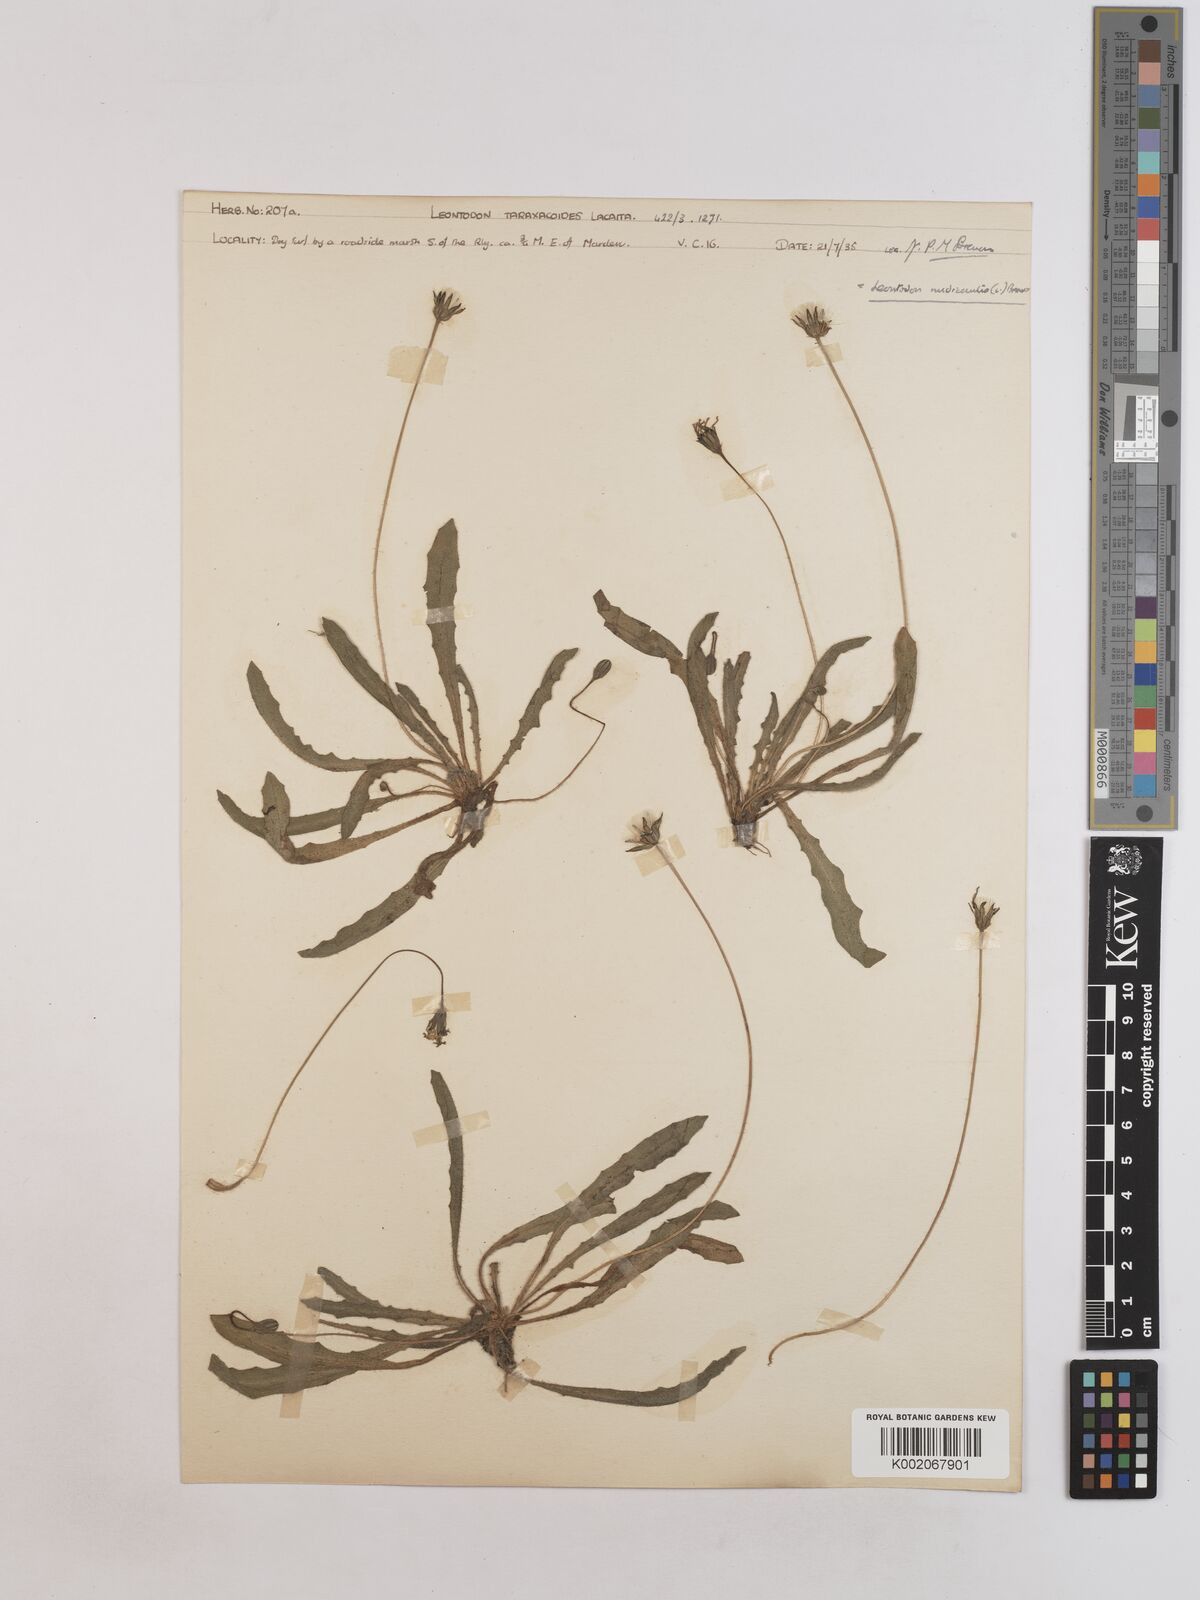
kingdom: Plantae
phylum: Tracheophyta
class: Magnoliopsida
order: Asterales
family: Asteraceae
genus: Thrincia
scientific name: Thrincia saxatilis
